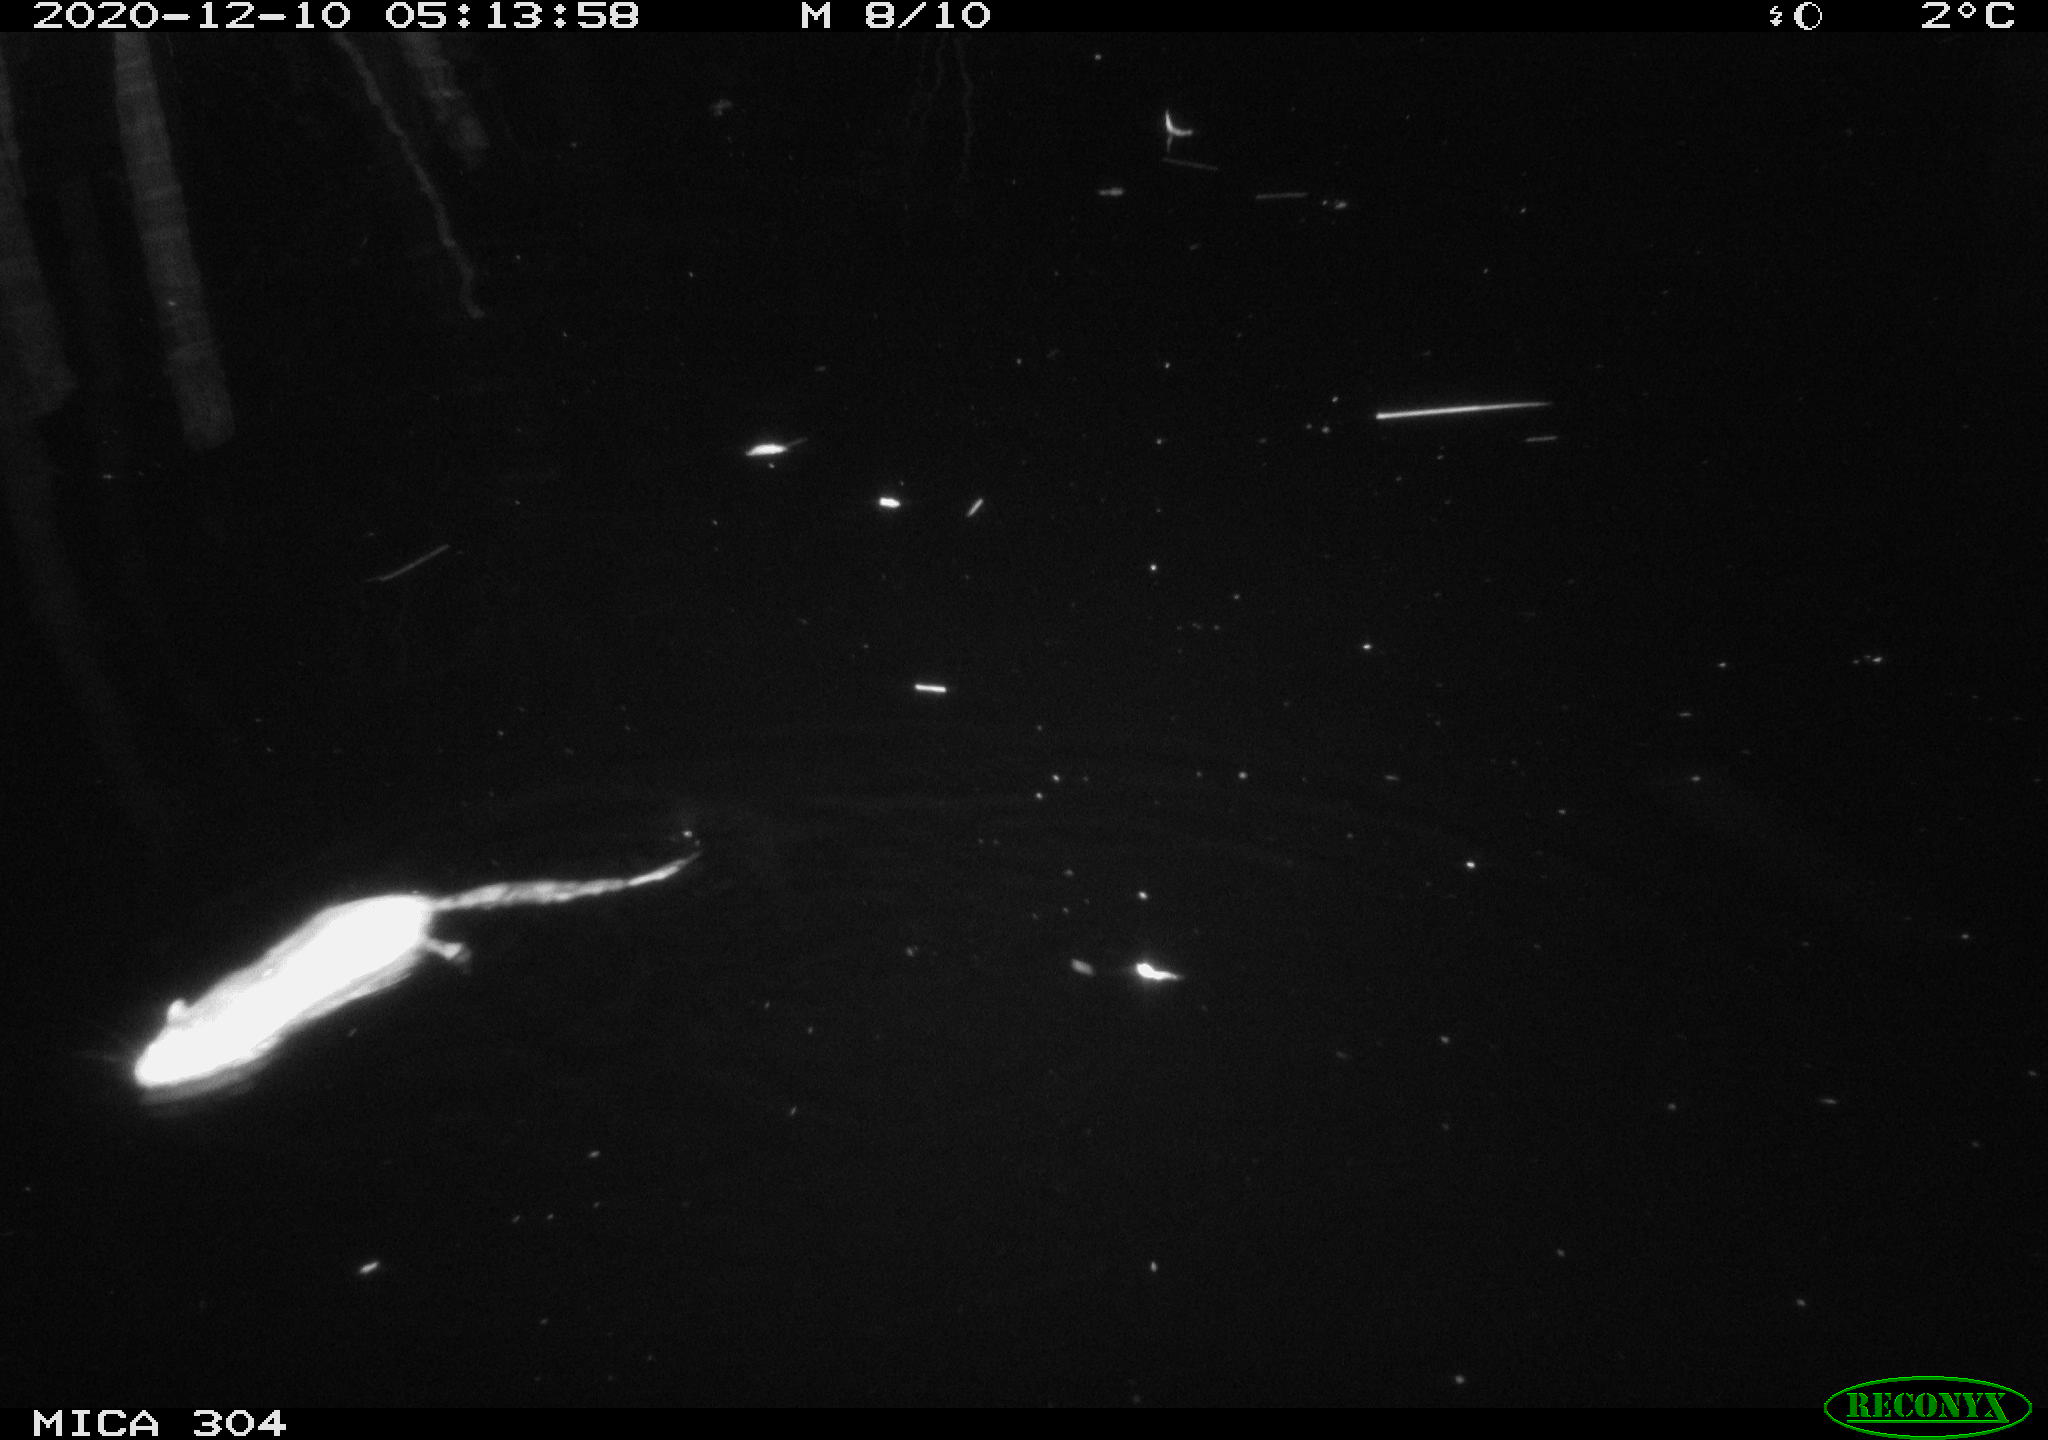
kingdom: Animalia
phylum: Chordata
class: Mammalia
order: Rodentia
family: Muridae
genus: Rattus
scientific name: Rattus norvegicus
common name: Brown rat
